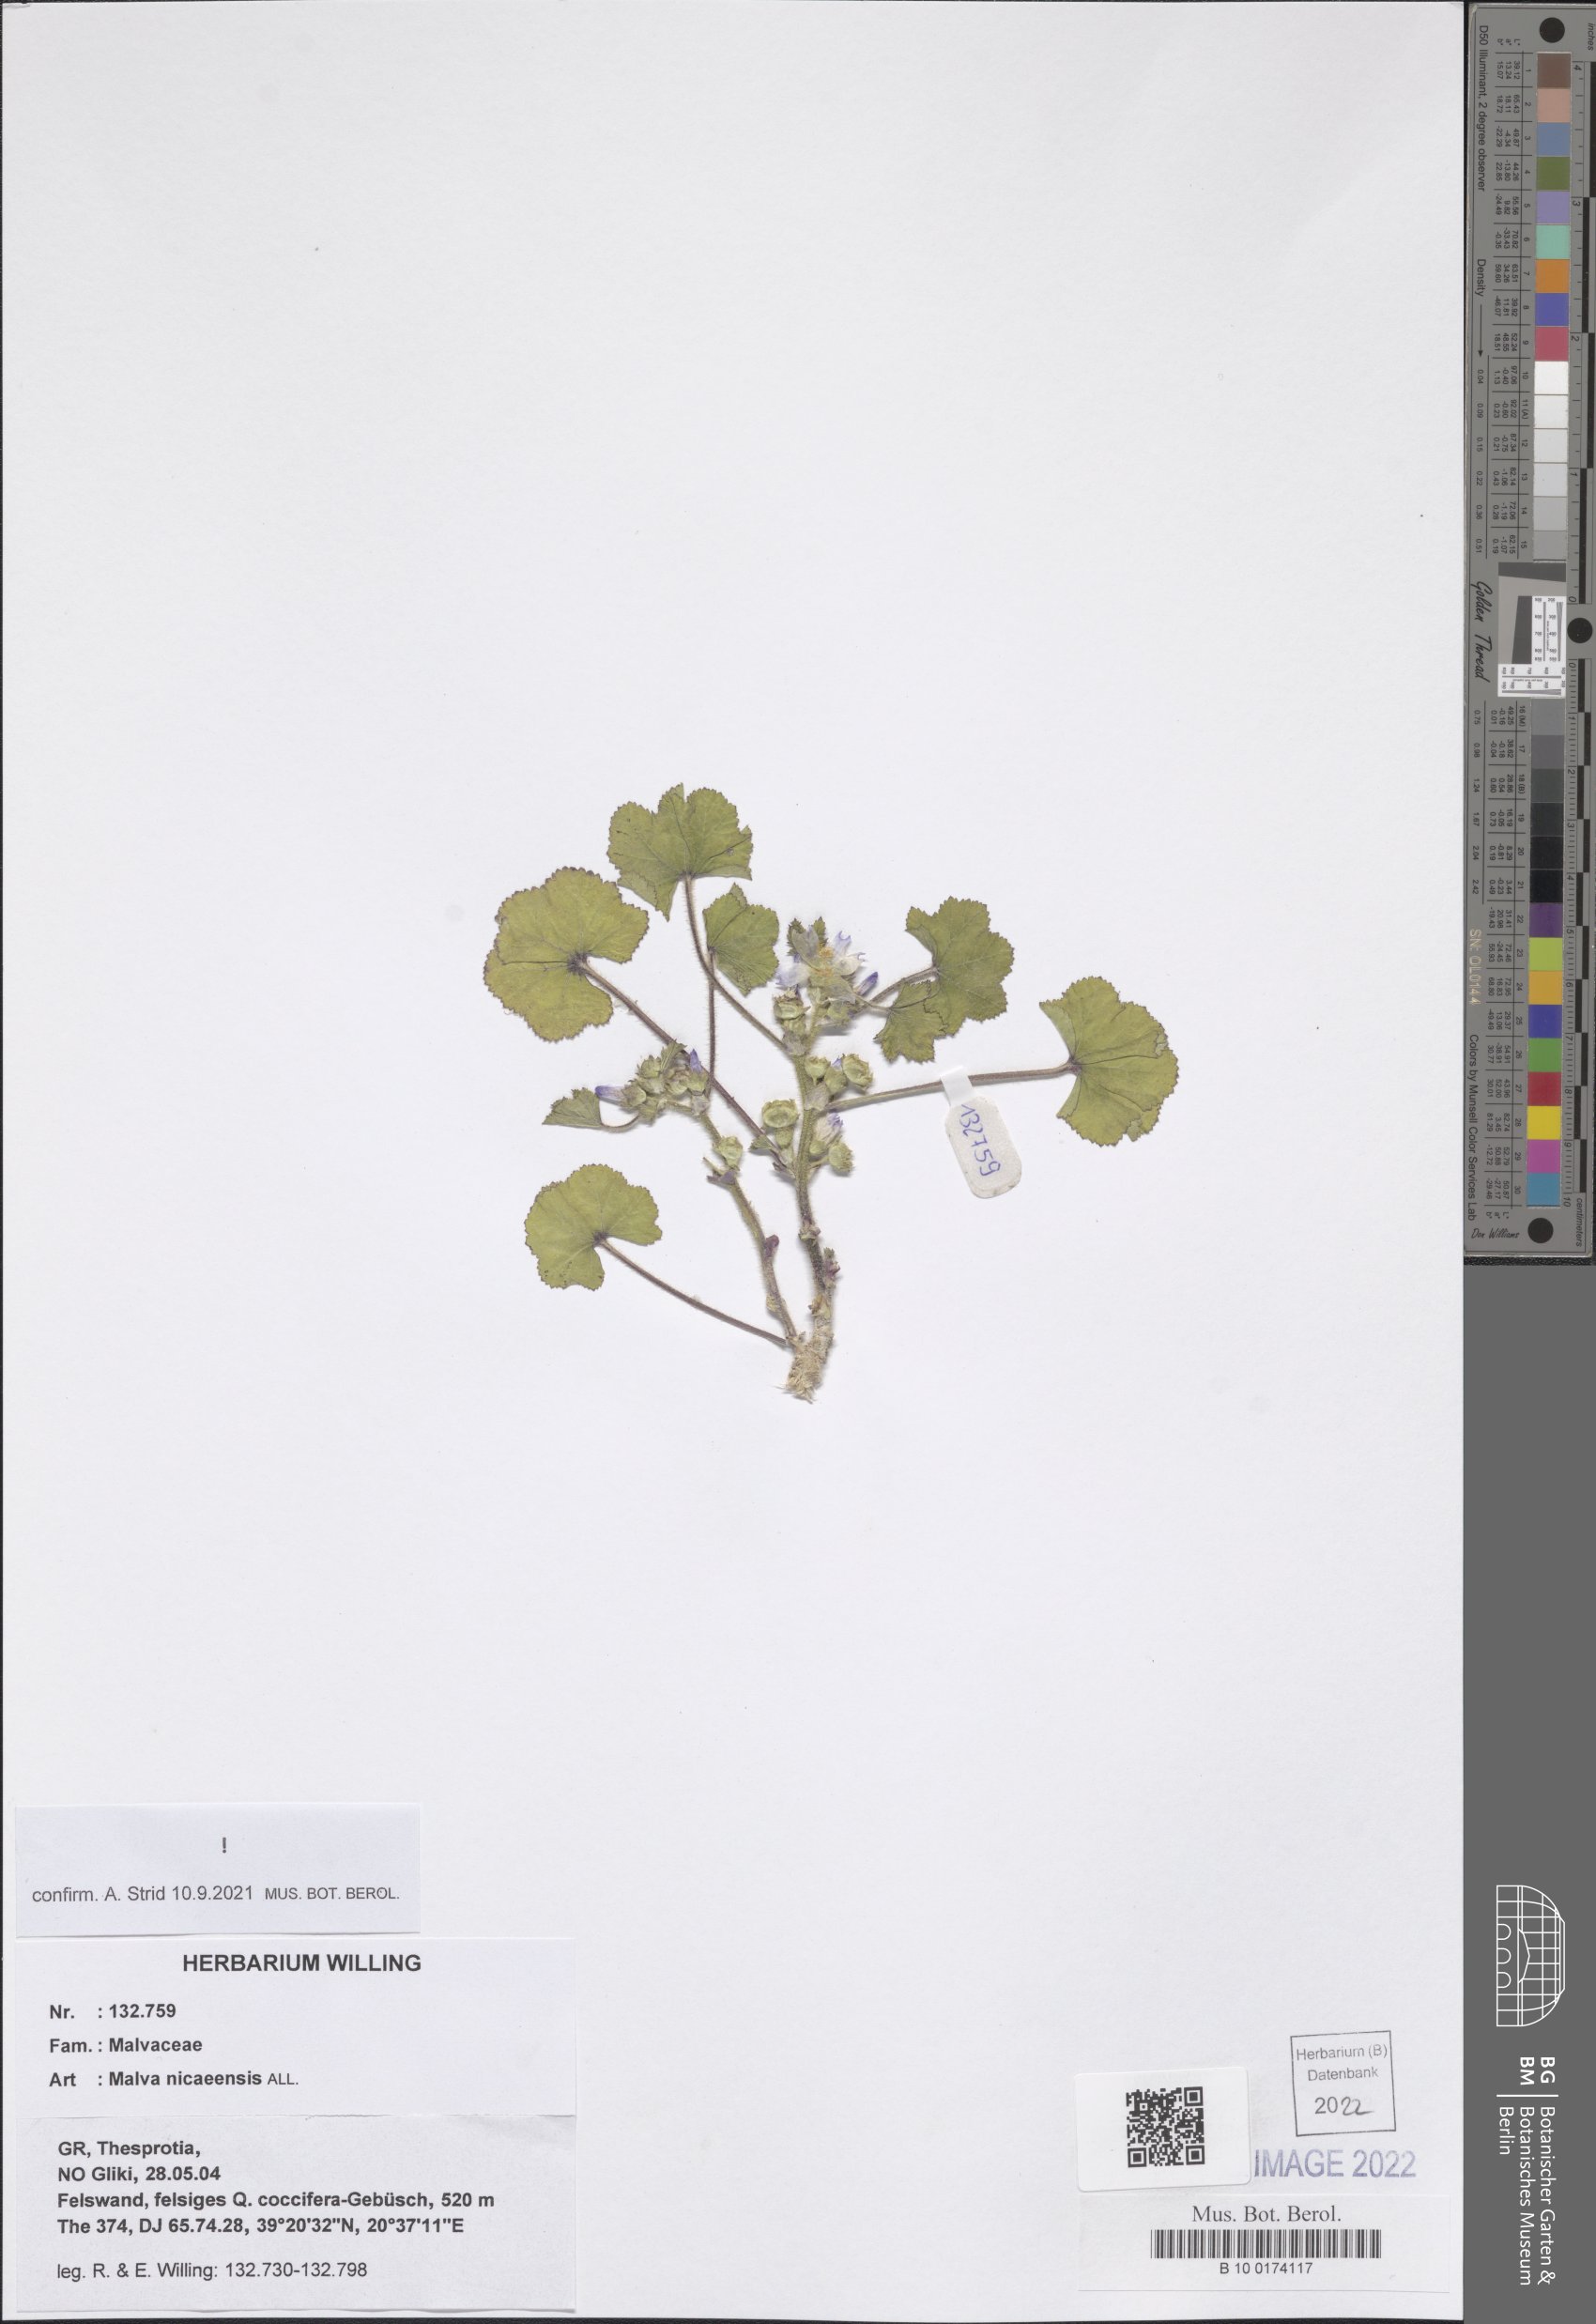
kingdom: Plantae
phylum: Tracheophyta
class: Magnoliopsida
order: Malvales
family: Malvaceae
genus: Malva
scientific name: Malva nicaeensis
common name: French mallow
